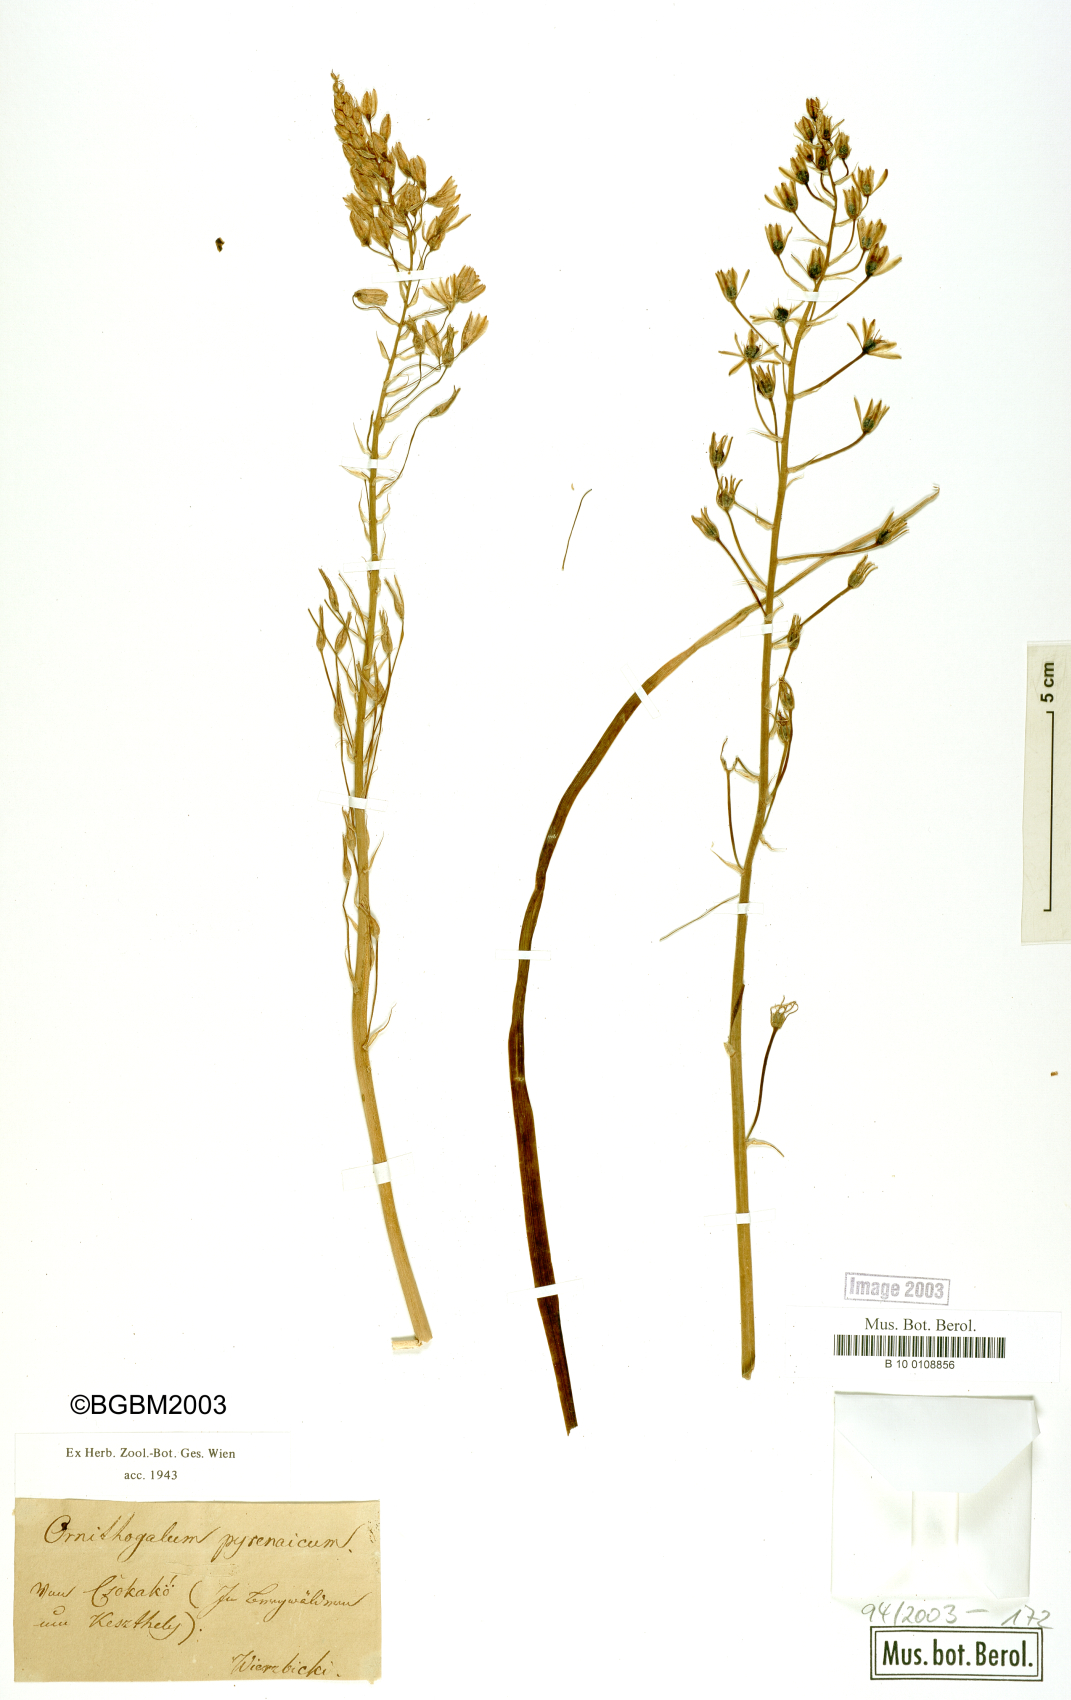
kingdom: Plantae
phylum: Tracheophyta
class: Liliopsida
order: Asparagales
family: Asparagaceae
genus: Ornithogalum
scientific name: Ornithogalum pyramidale
